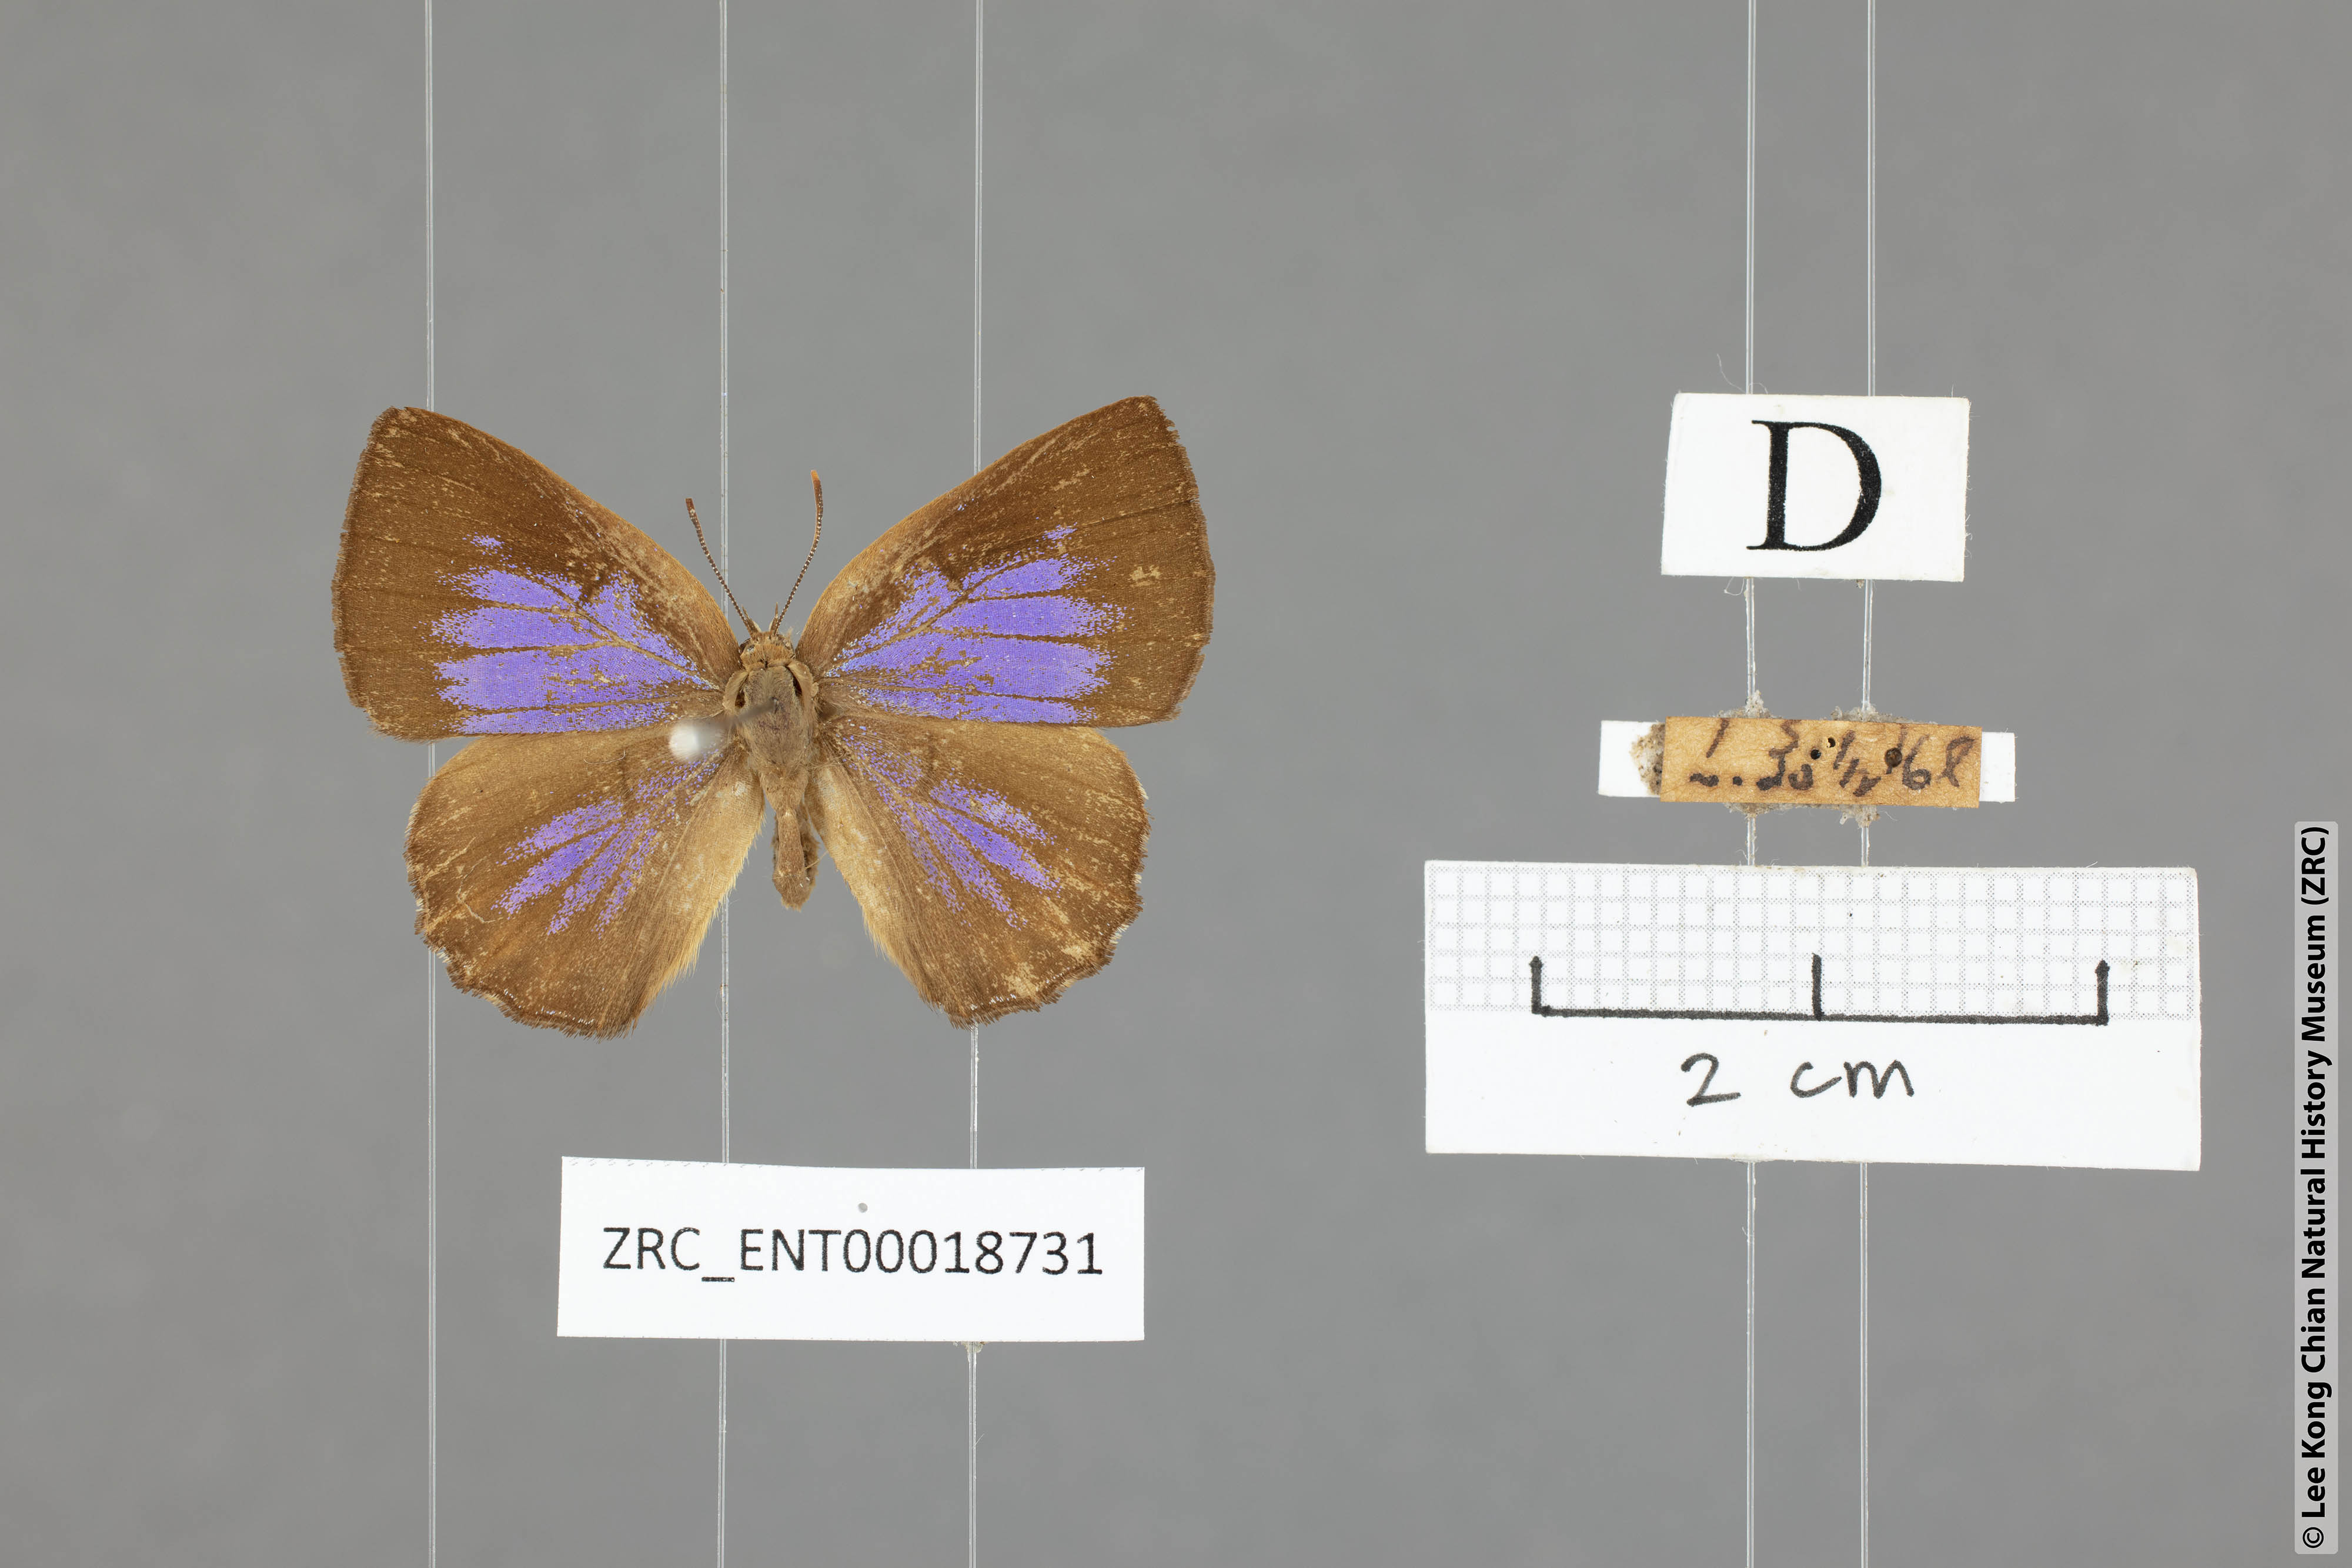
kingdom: Animalia
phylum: Arthropoda
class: Insecta
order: Lepidoptera
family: Lycaenidae
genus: Deramas
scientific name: Deramas livena
